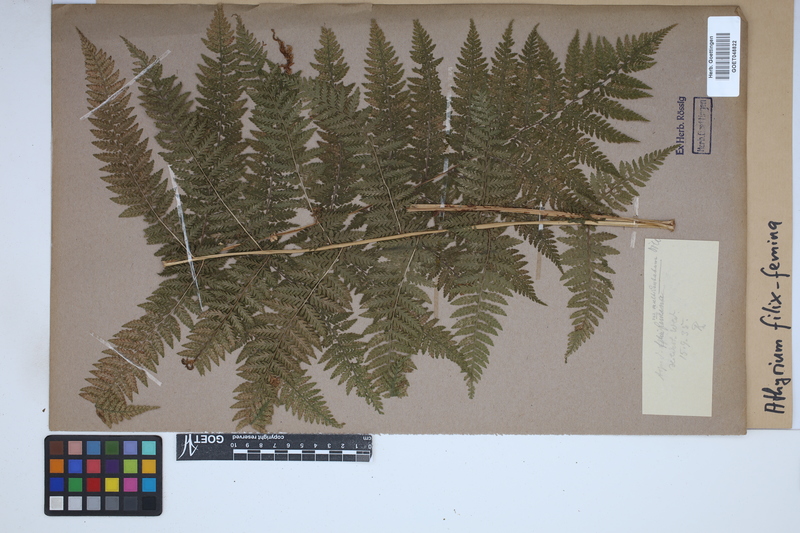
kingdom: Plantae
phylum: Tracheophyta
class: Polypodiopsida
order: Polypodiales
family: Athyriaceae
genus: Athyrium
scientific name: Athyrium filix-femina
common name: Lady fern
